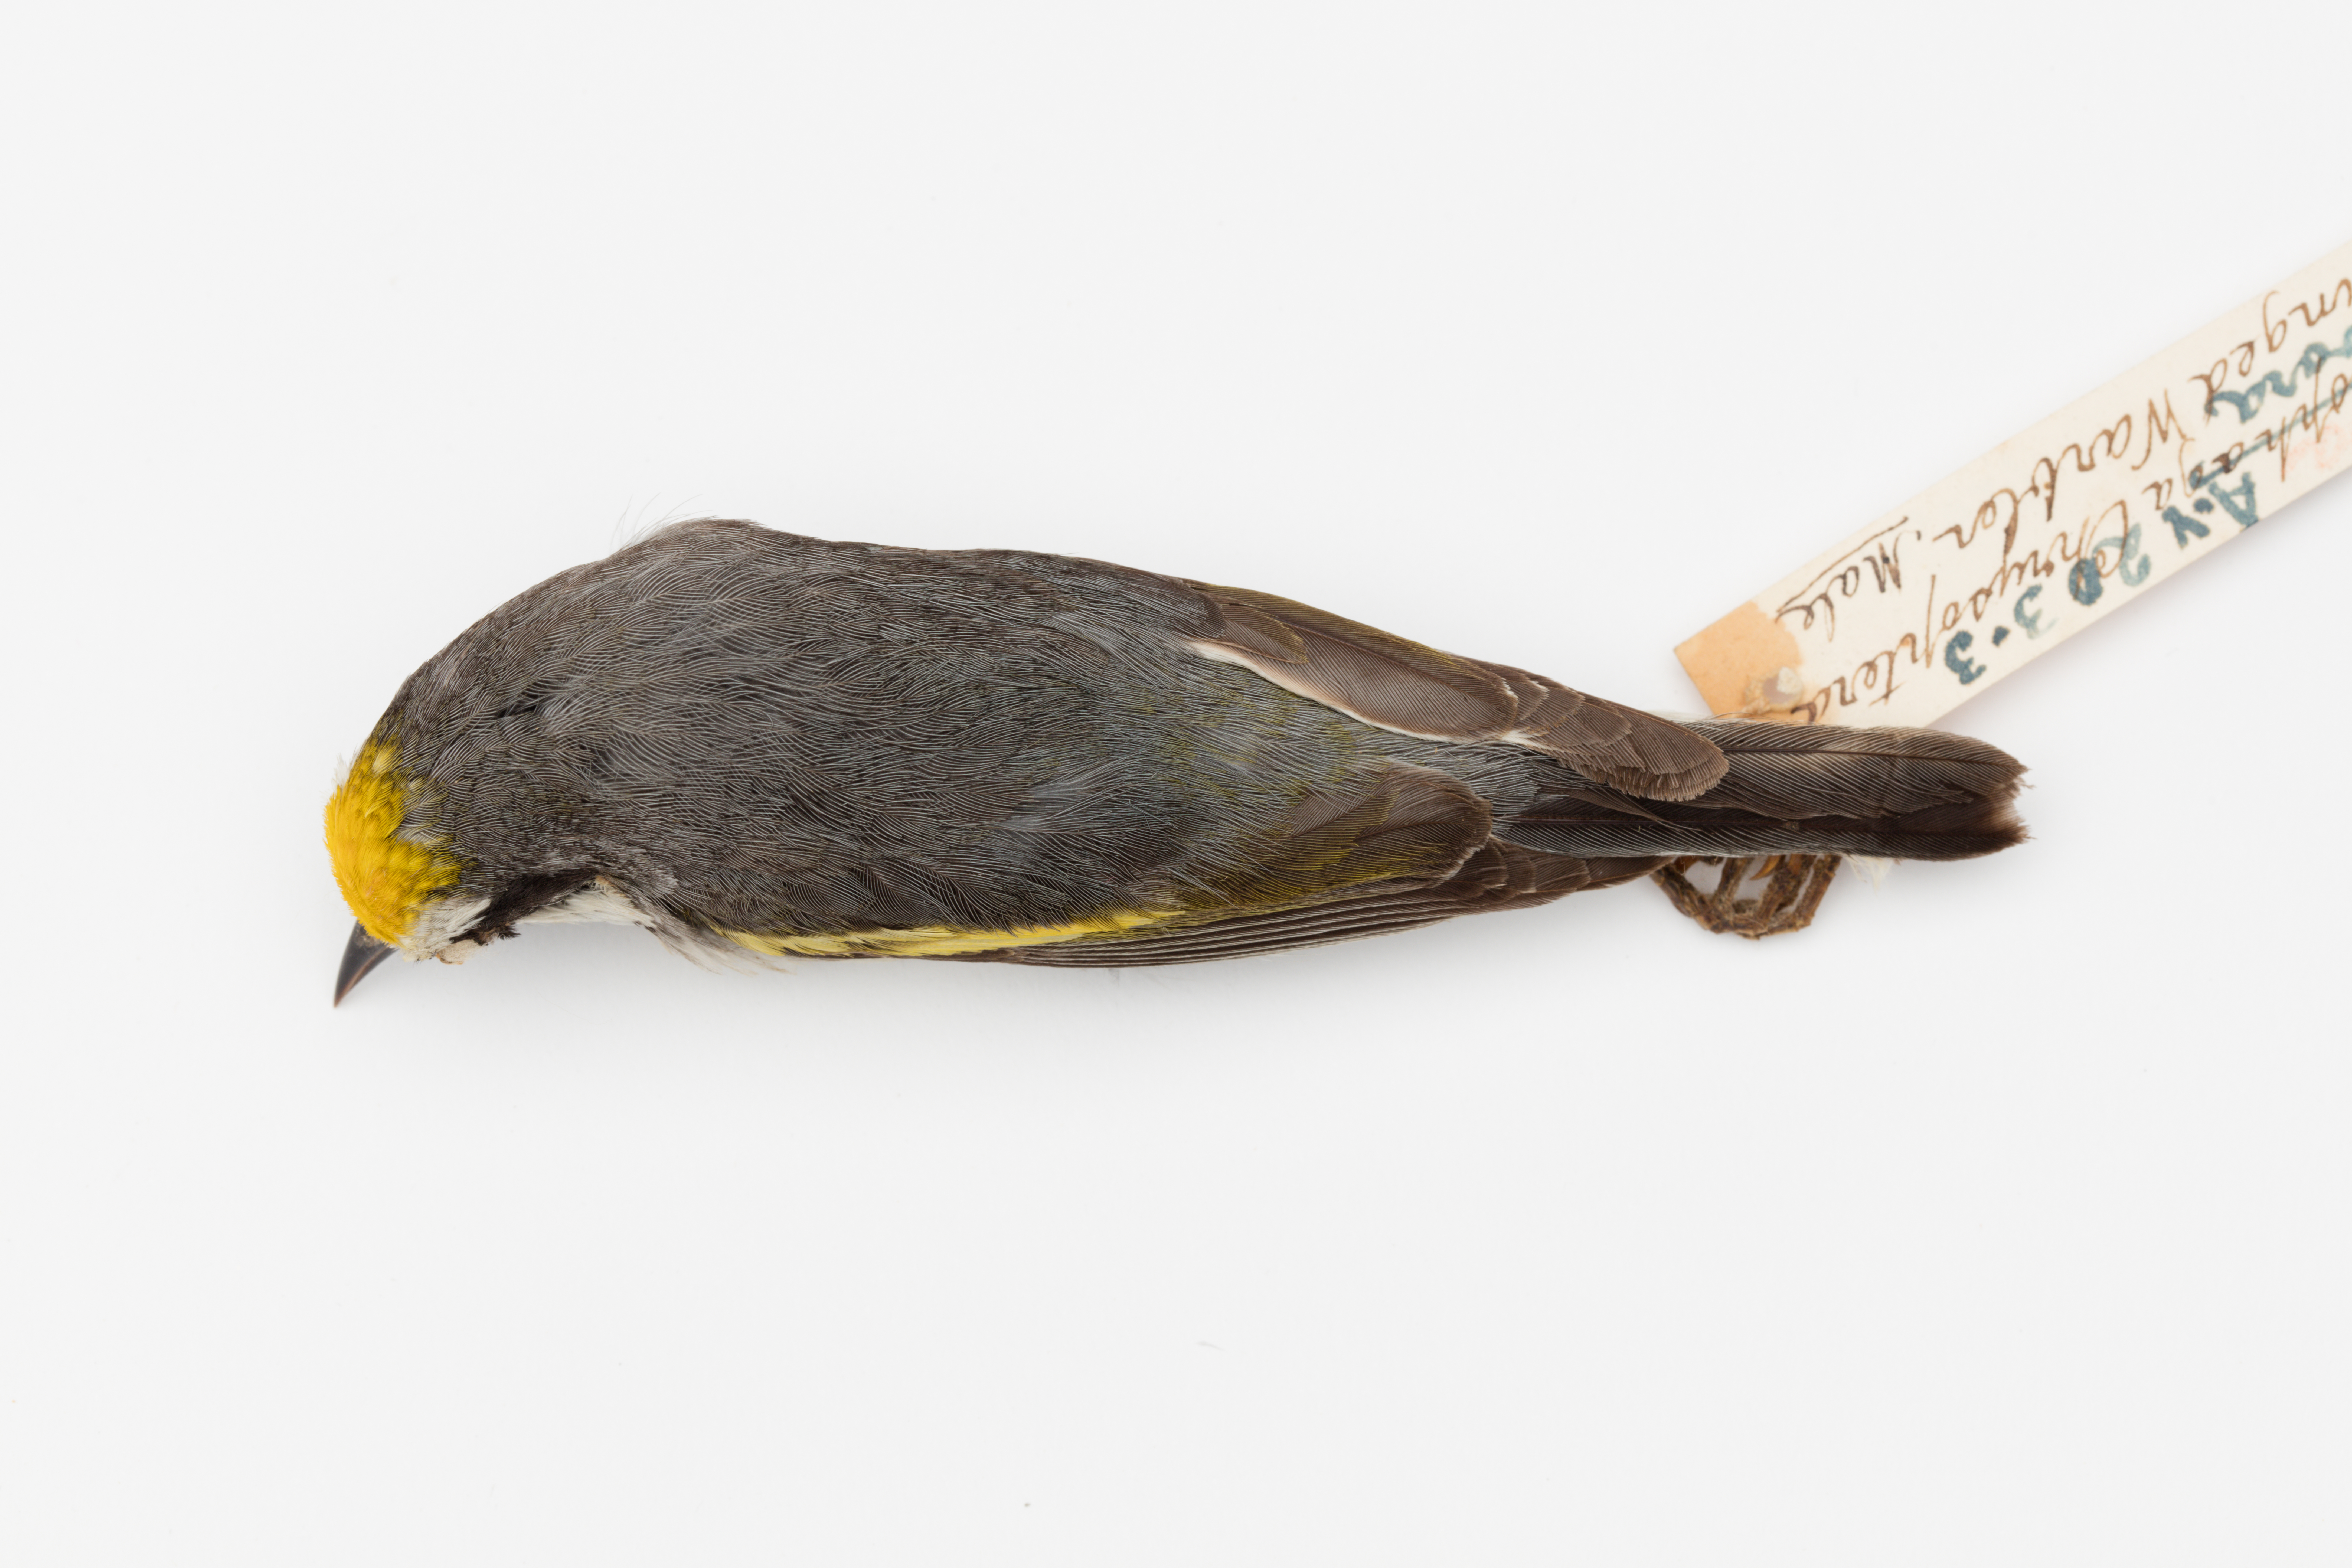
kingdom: Animalia
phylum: Chordata
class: Aves
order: Passeriformes
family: Parulidae
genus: Vermivora
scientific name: Vermivora chrysoptera
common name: Golden-winged warbler
